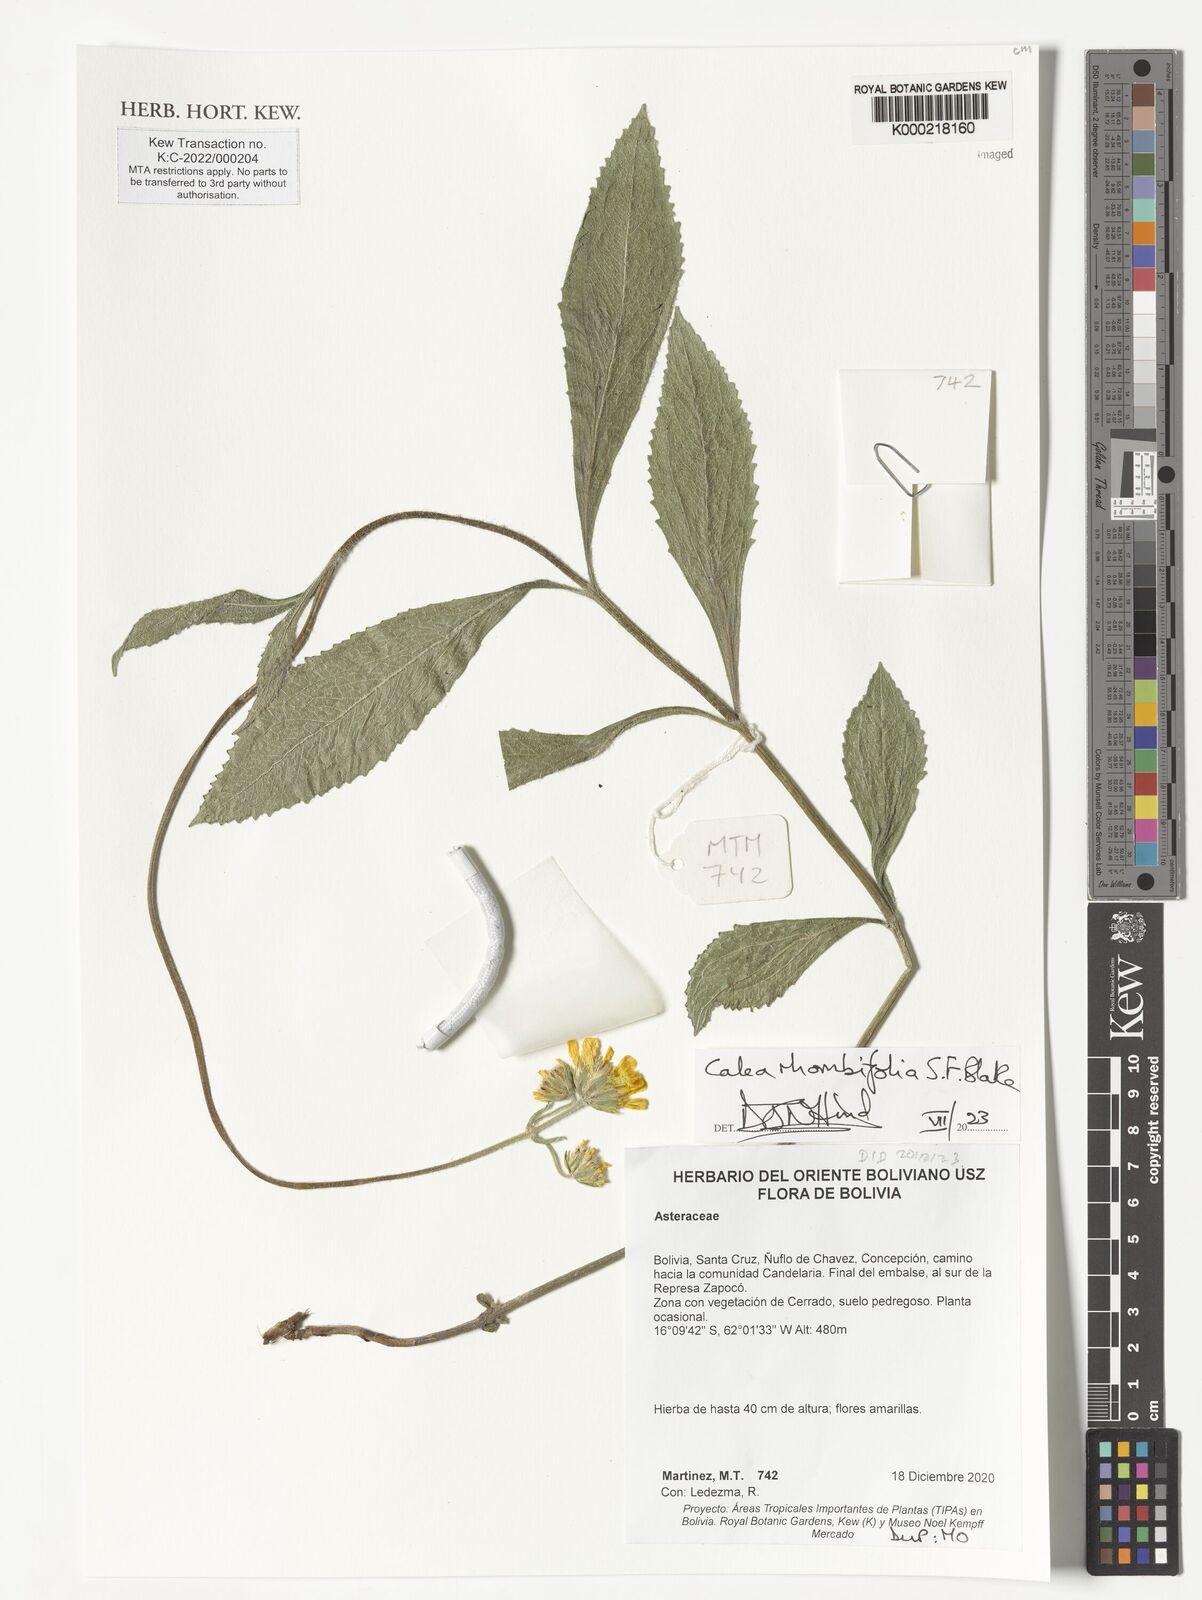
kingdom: Plantae
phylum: Tracheophyta
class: Magnoliopsida
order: Asterales
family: Asteraceae
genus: Calea
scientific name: Calea rhombifolia
